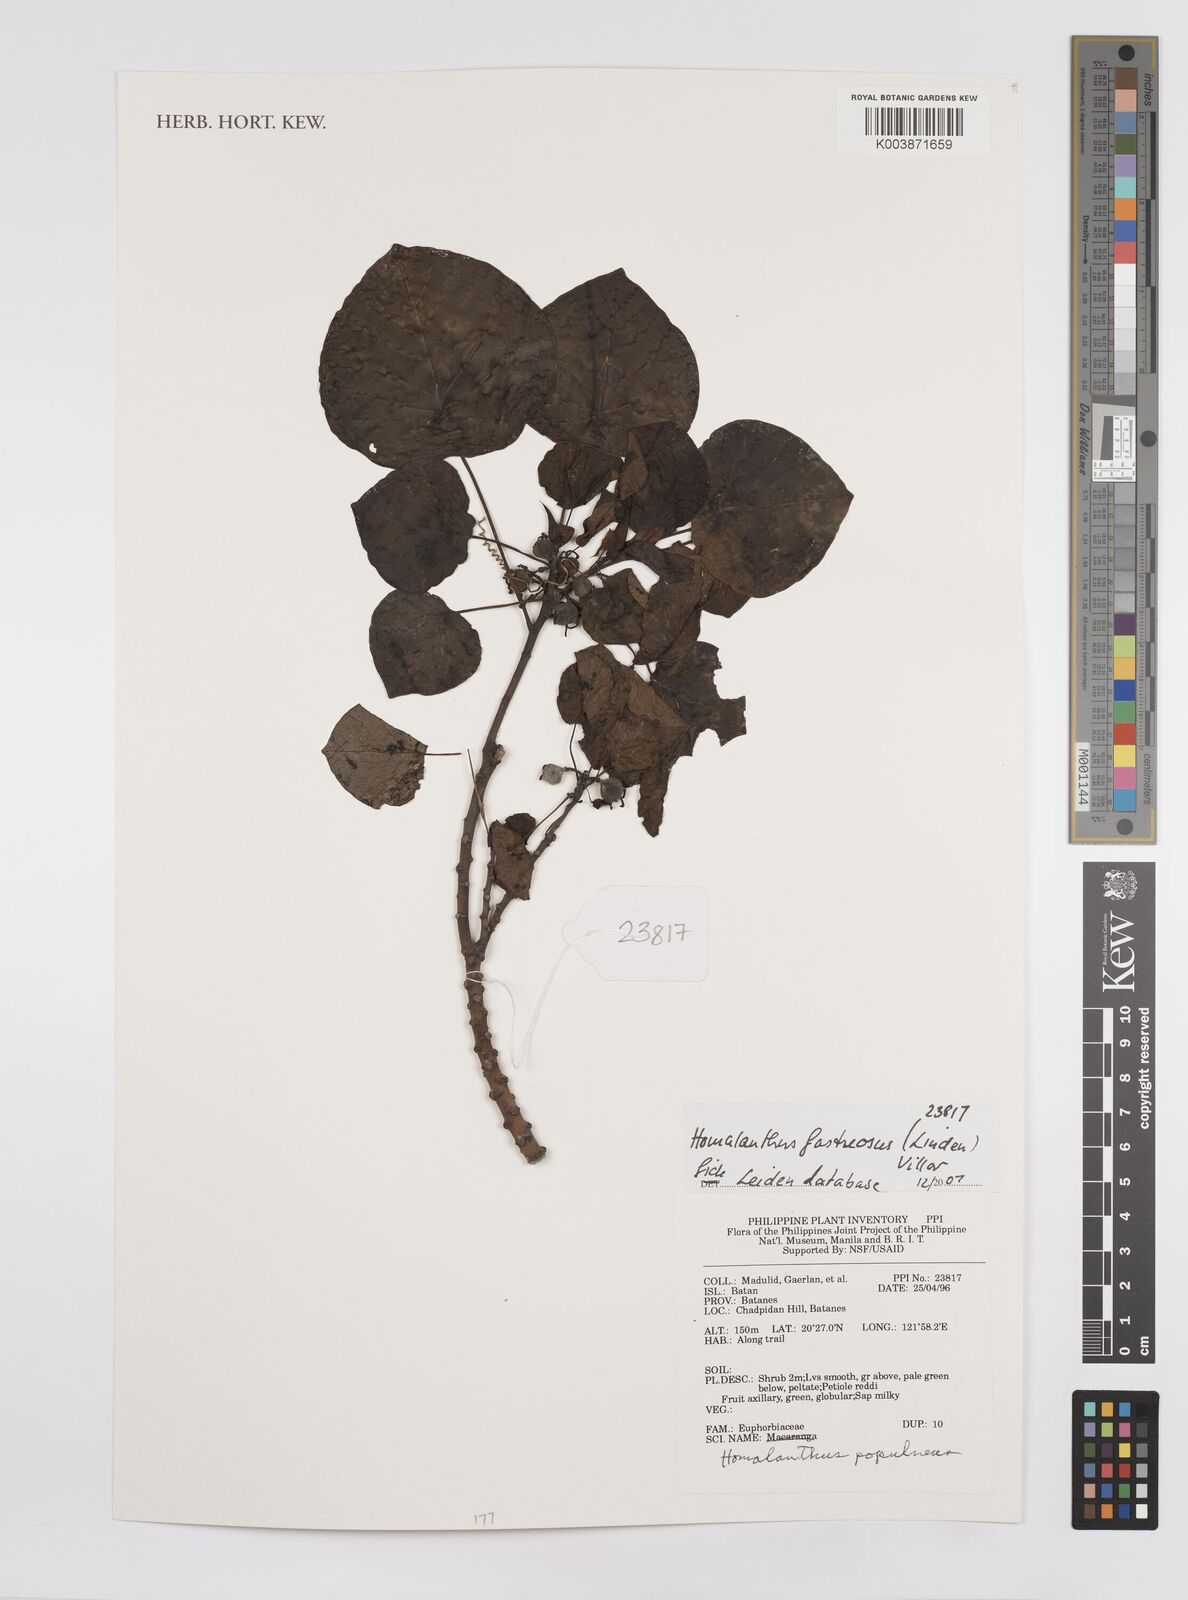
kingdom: Plantae
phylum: Tracheophyta
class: Magnoliopsida
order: Malpighiales
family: Euphorbiaceae
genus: Homalanthus
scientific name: Homalanthus fastuosus
